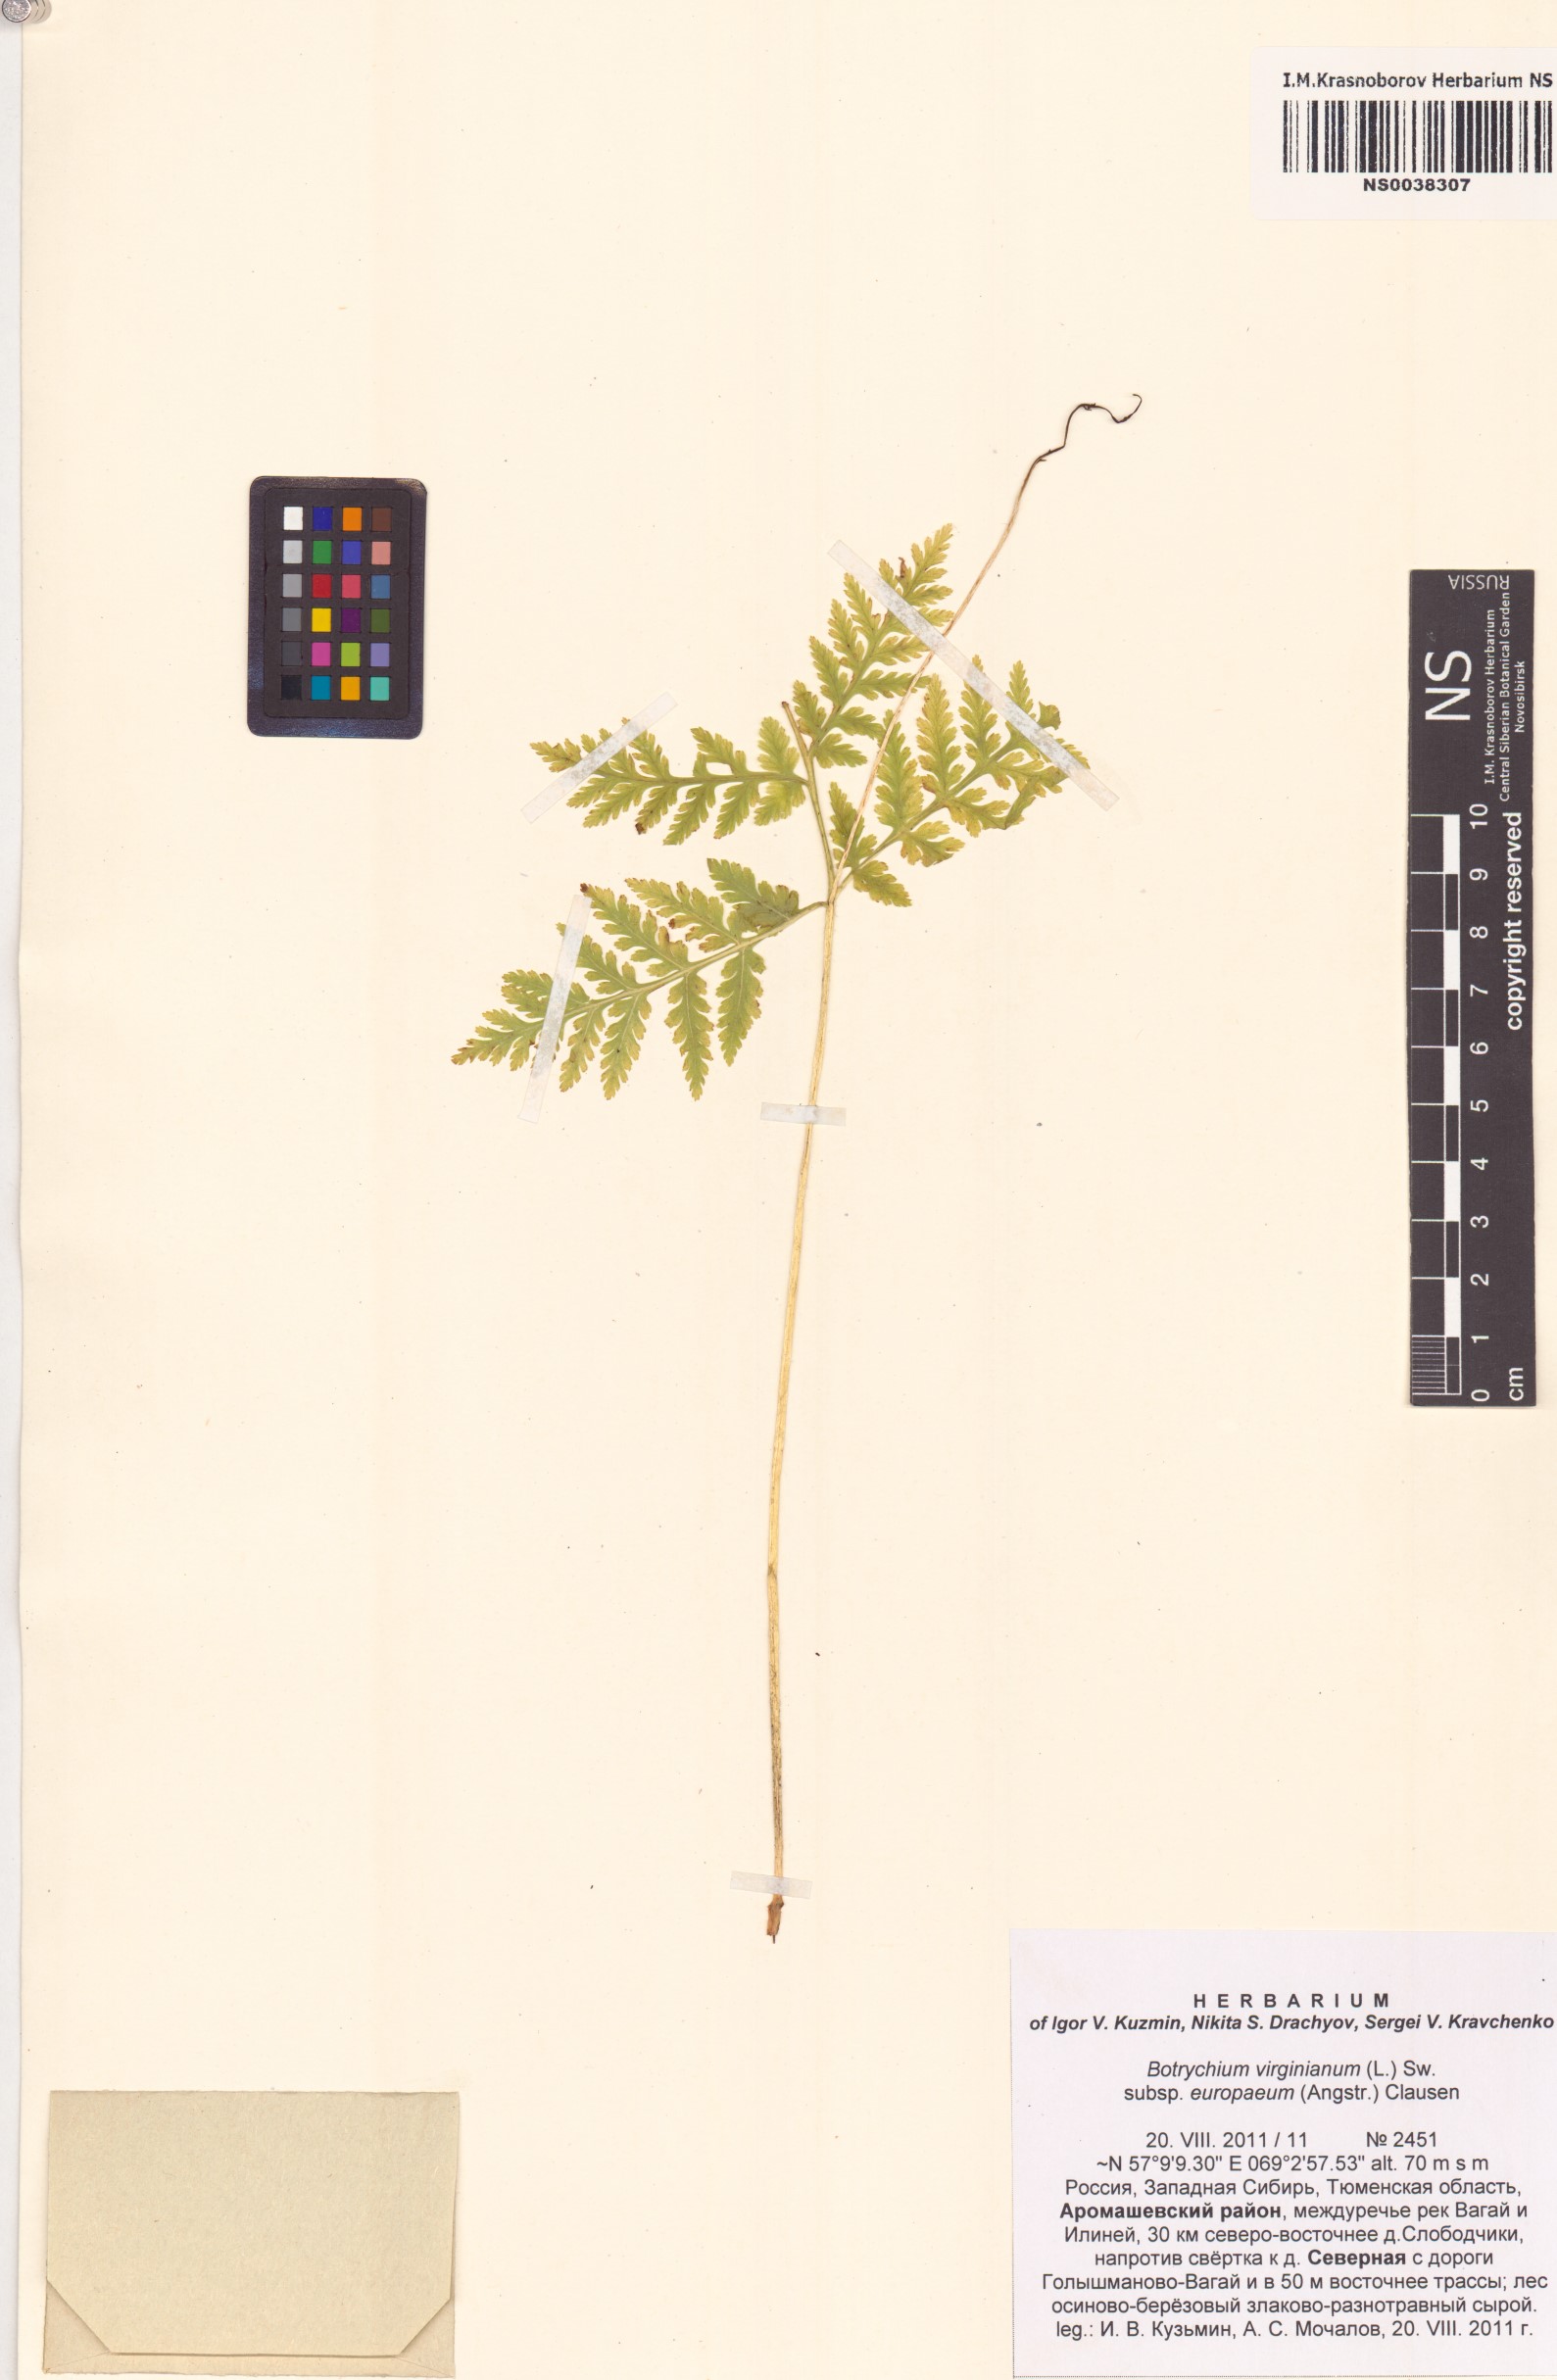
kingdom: Plantae
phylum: Tracheophyta
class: Polypodiopsida
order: Ophioglossales
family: Ophioglossaceae
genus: Botrypus
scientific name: Botrypus virginianus
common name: Common grapefern
